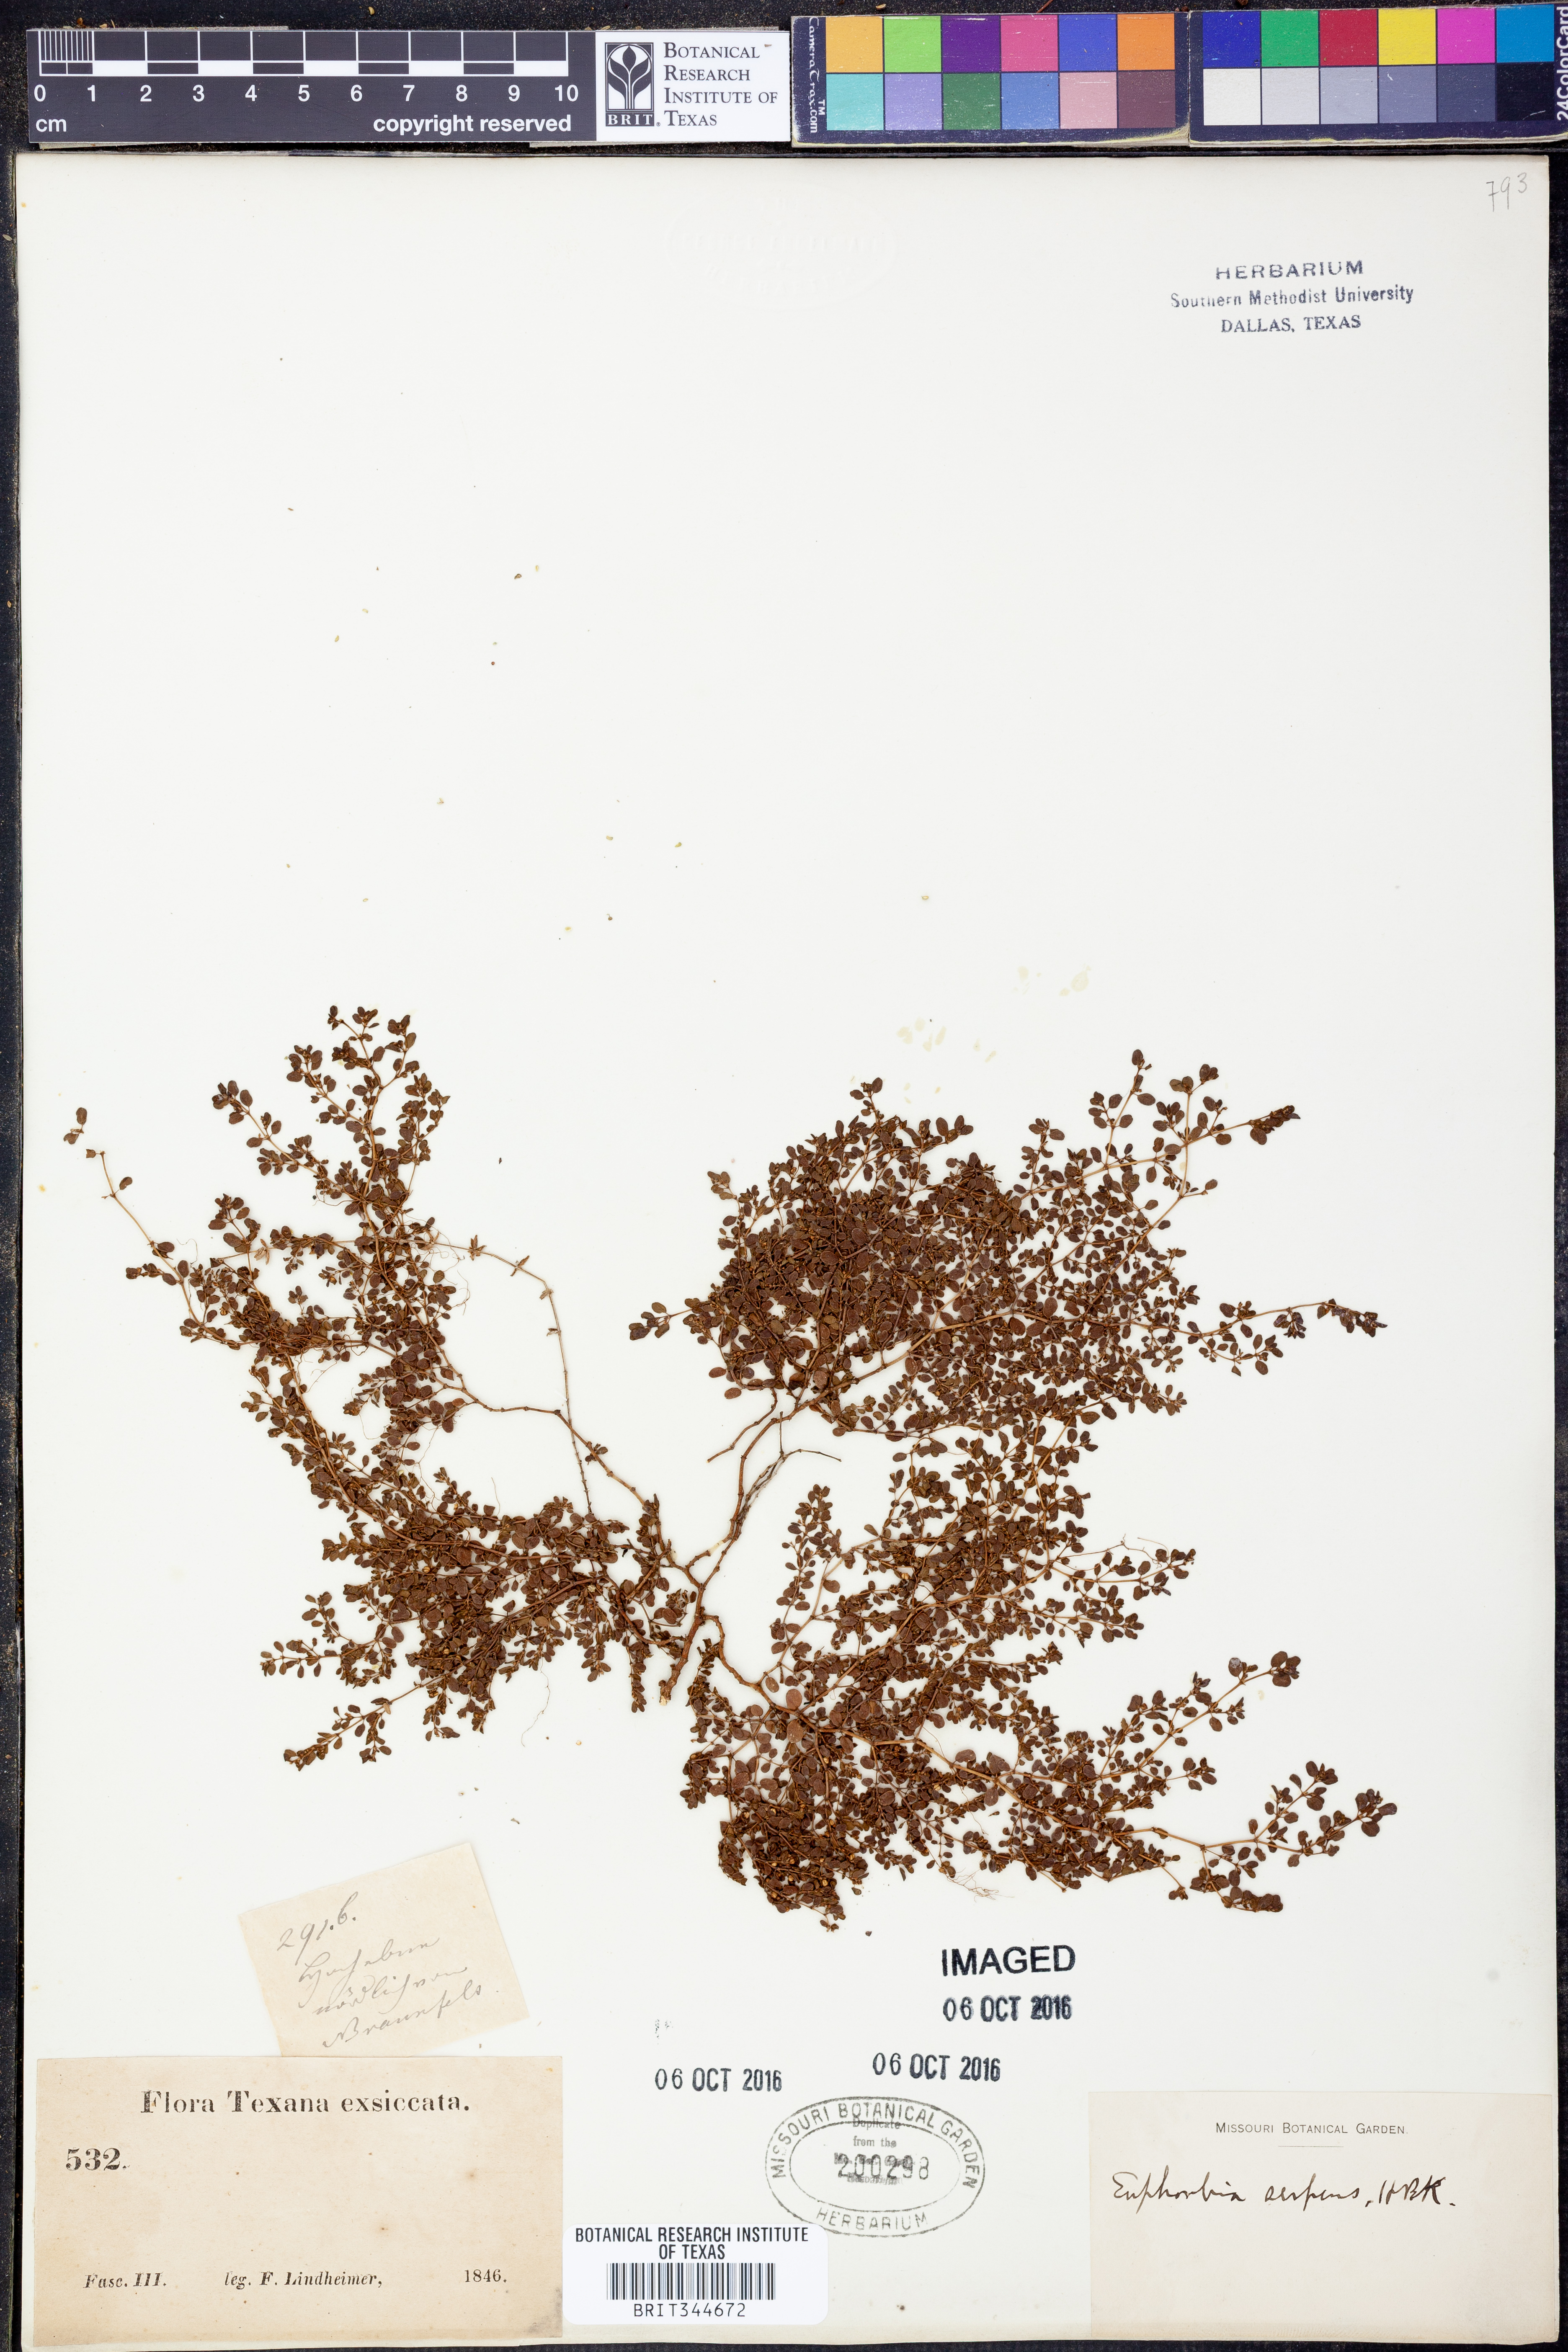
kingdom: Plantae
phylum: Tracheophyta
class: Magnoliopsida
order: Malpighiales
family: Euphorbiaceae
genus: Euphorbia
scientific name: Euphorbia serpens
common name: Matted sandmat
